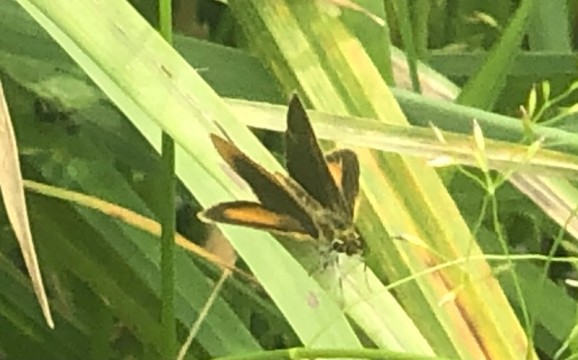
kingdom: Animalia
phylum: Arthropoda
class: Insecta
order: Lepidoptera
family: Hesperiidae
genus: Ancyloxypha
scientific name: Ancyloxypha numitor
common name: Least Skipper
